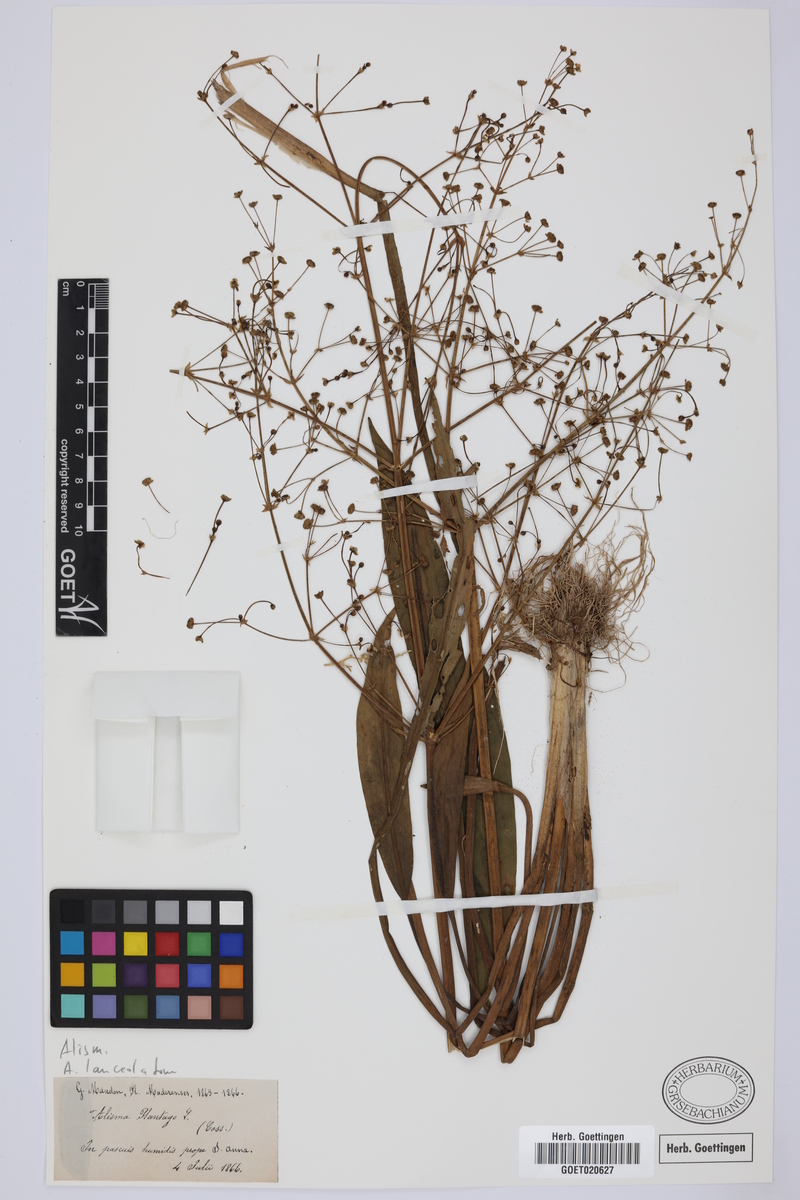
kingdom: Plantae
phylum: Tracheophyta
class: Liliopsida
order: Alismatales
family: Alismataceae
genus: Alisma
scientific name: Alisma lanceolatum
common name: Narrow-leaved water-plantain
